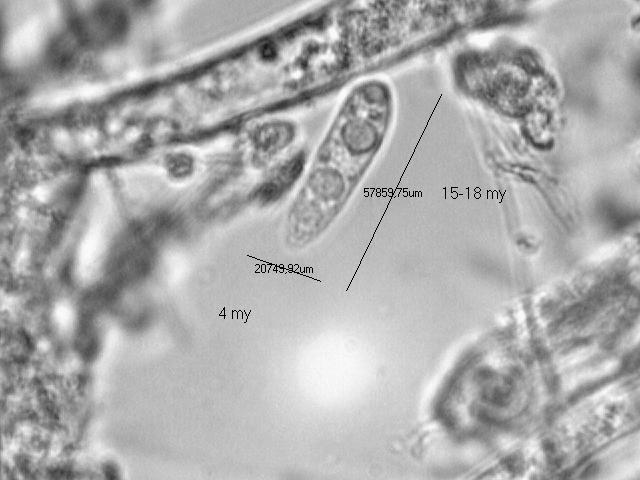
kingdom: Fungi
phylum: Ascomycota
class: Leotiomycetes
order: Helotiales
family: Helotiaceae
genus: Hymenoscyphus
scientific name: Hymenoscyphus fraxineus
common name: asketoptørre-stilkskive
